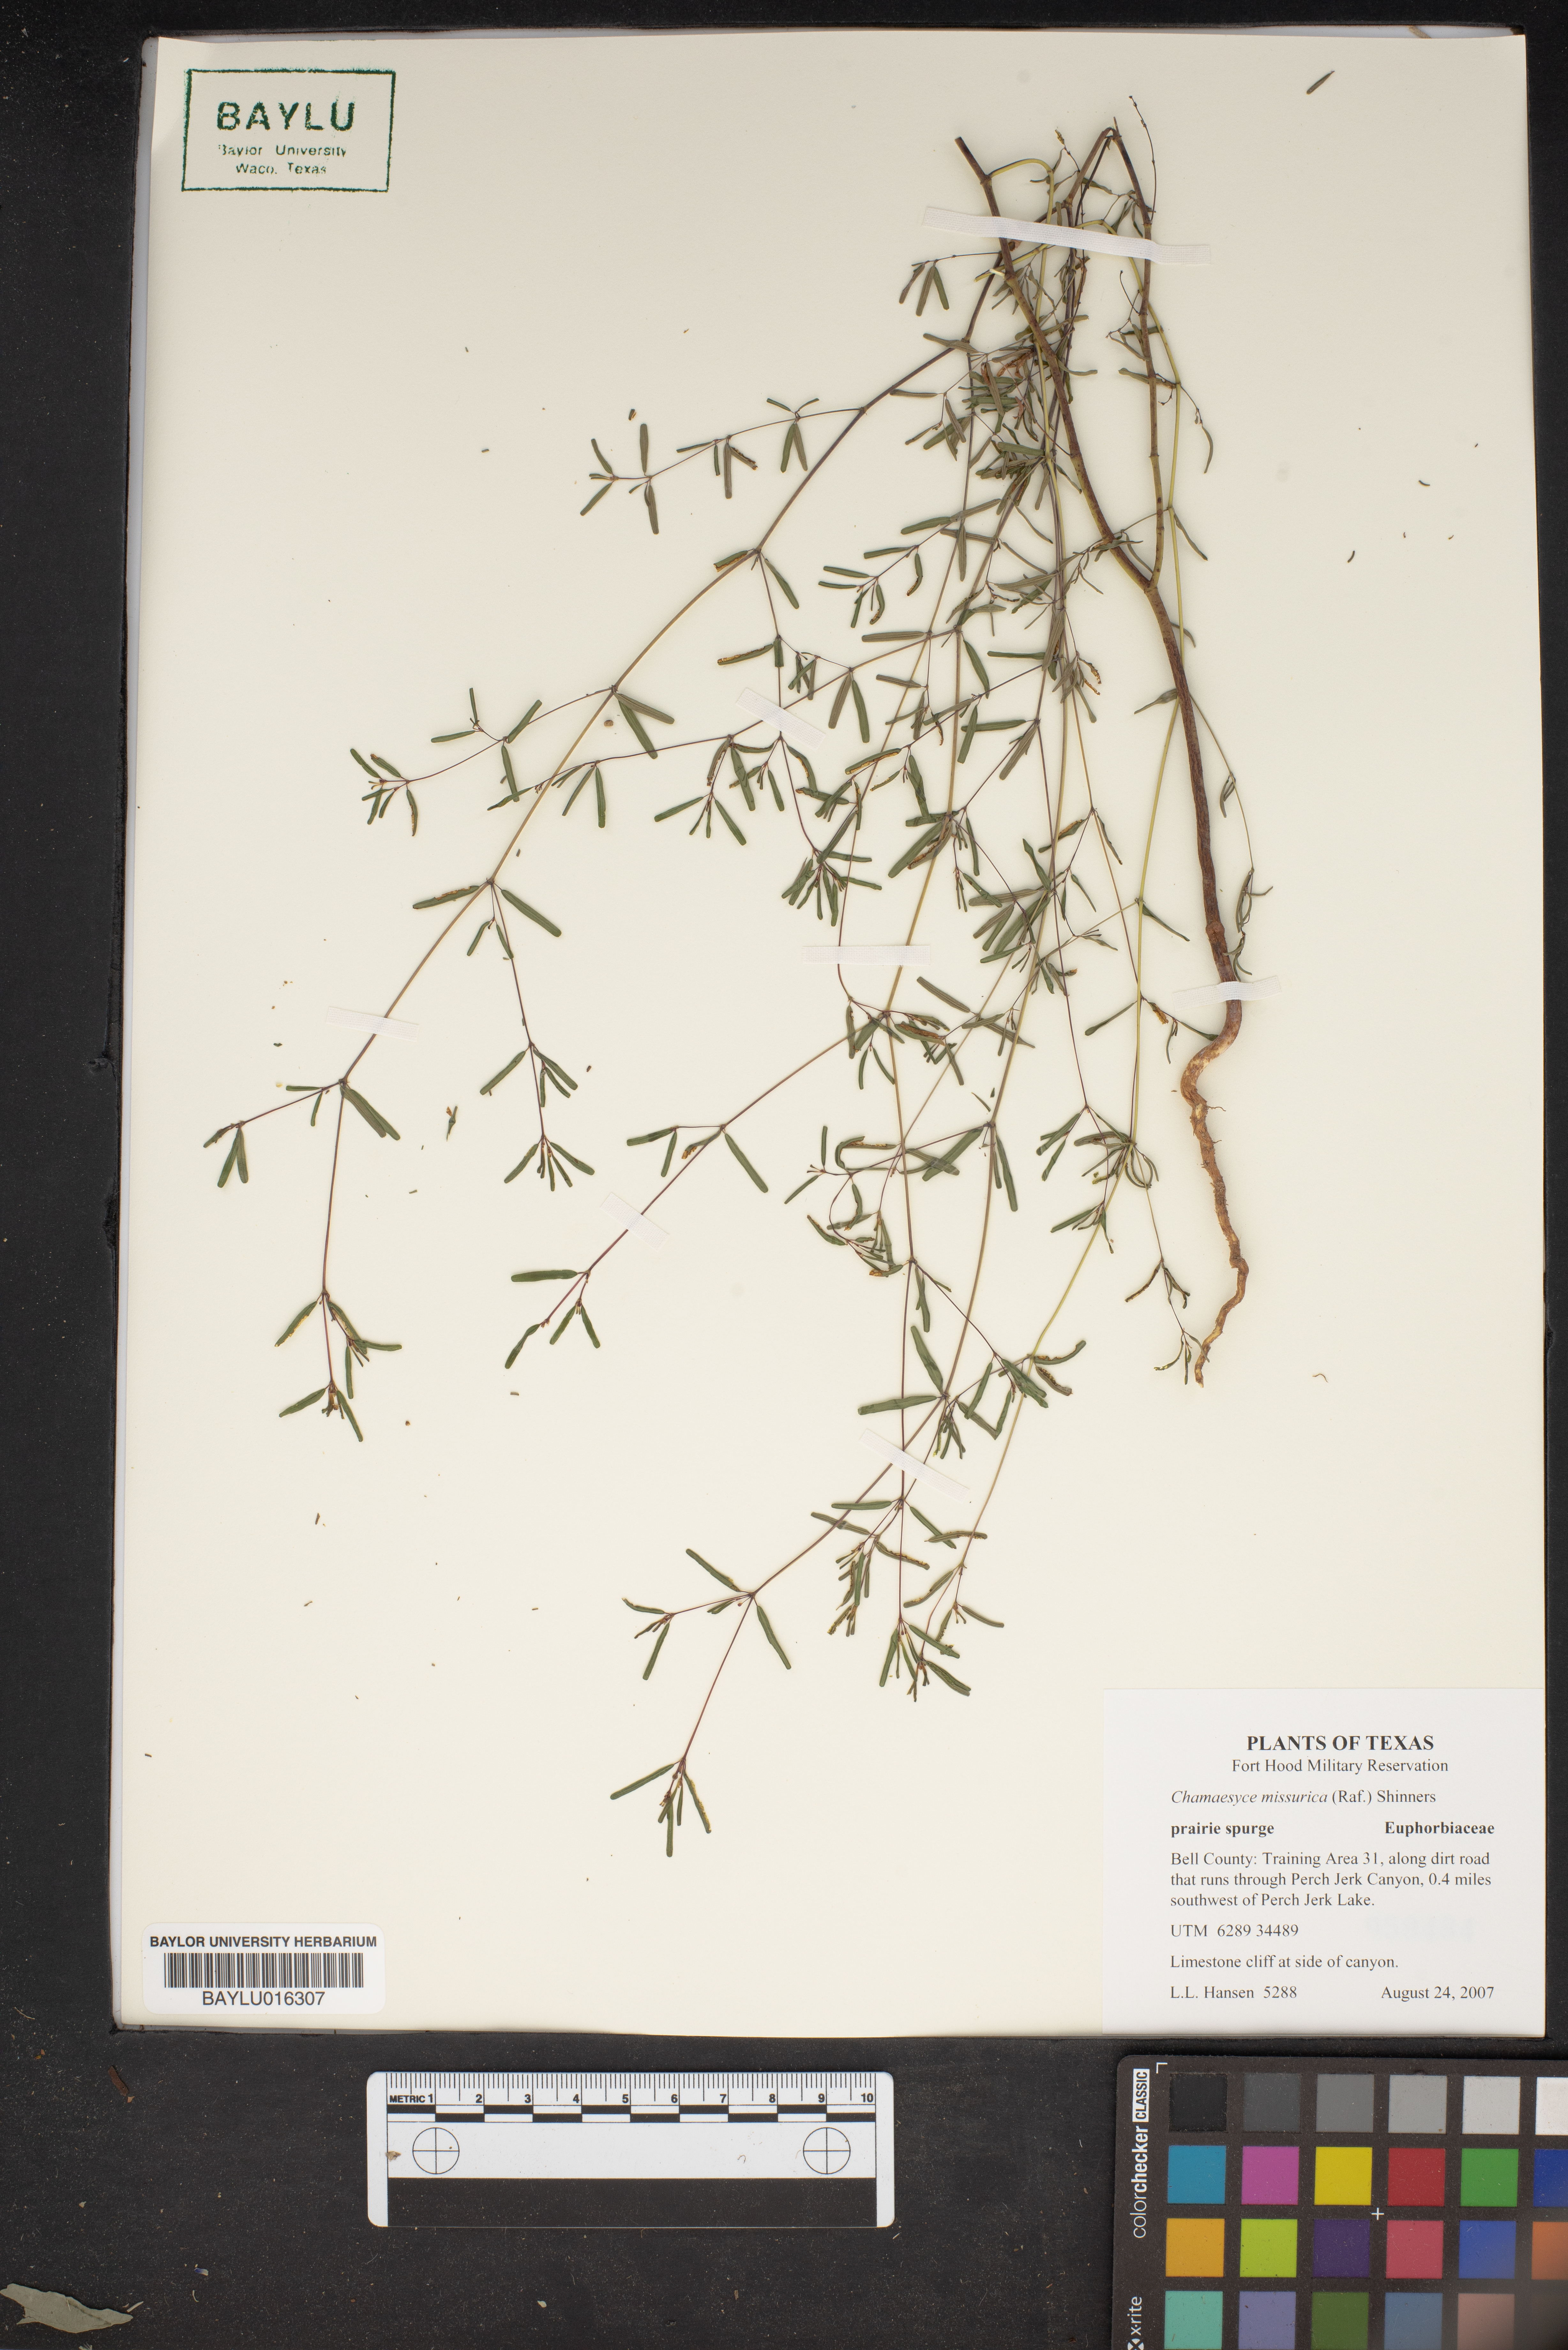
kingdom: Plantae
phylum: Tracheophyta
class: Magnoliopsida
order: Malpighiales
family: Euphorbiaceae
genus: Euphorbia
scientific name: Euphorbia missurica
